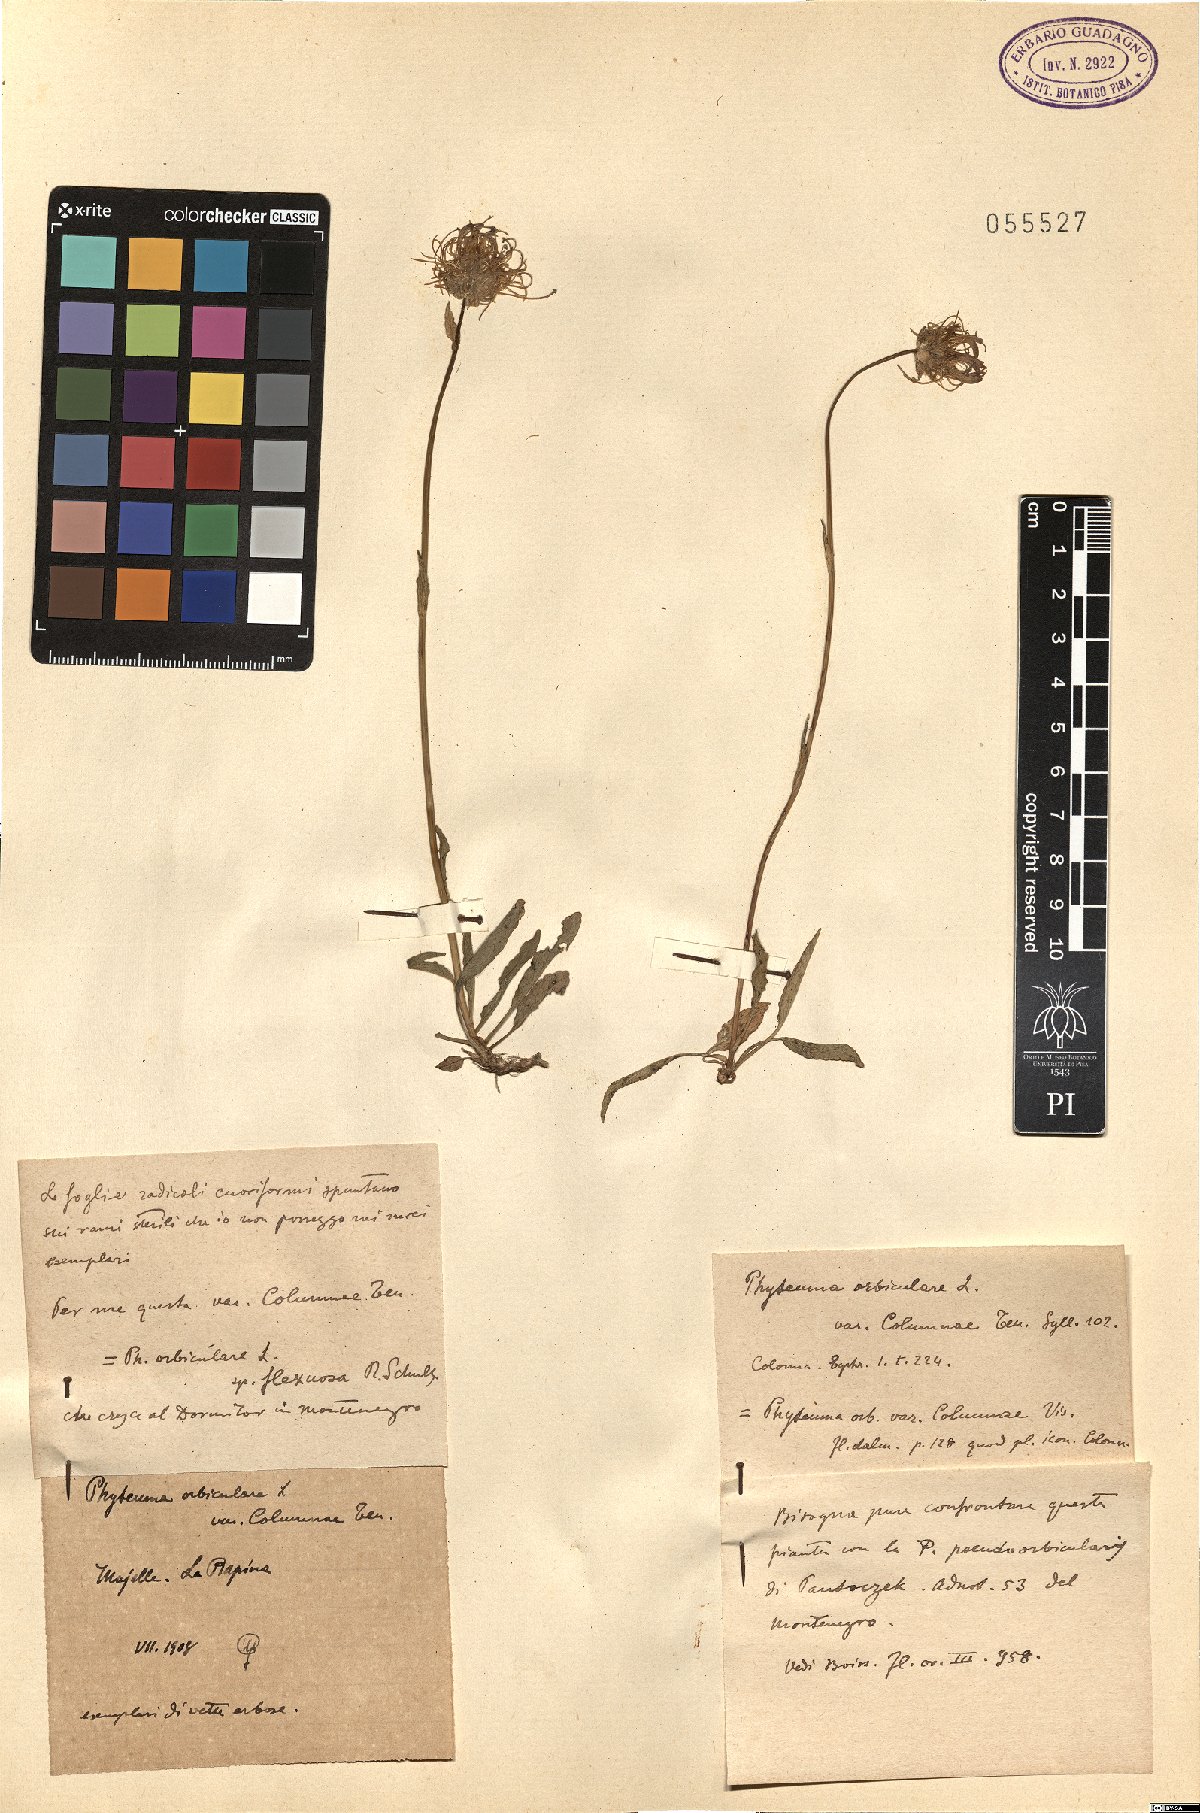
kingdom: Plantae
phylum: Tracheophyta
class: Magnoliopsida
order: Asterales
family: Campanulaceae
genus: Phyteuma
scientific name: Phyteuma orbiculare
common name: Round-headed rampion
